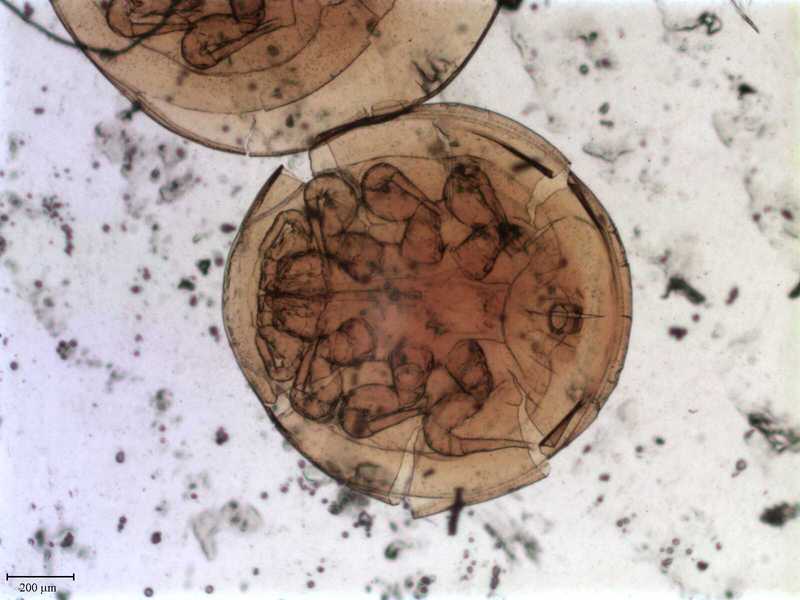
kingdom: Animalia
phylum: Arthropoda
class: Arachnida
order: Mesostigmata
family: Uropodidae
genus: Cilliba
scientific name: Cilliba
